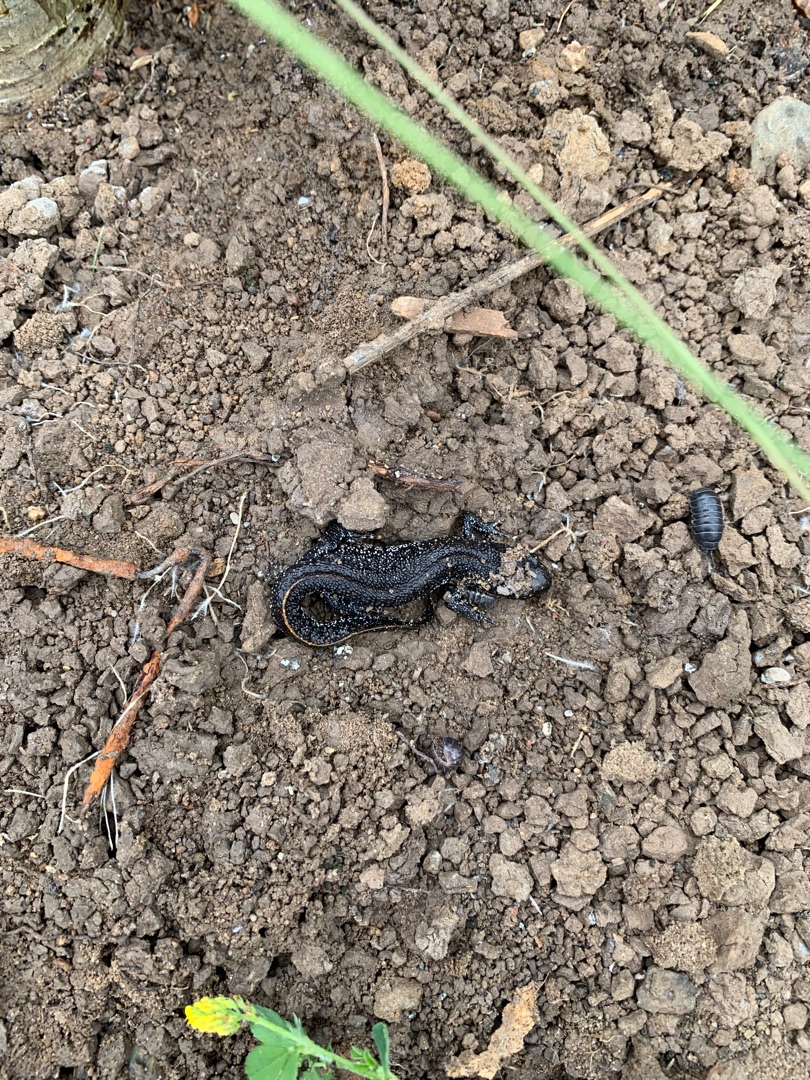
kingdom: Animalia
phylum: Chordata
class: Amphibia
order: Caudata
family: Salamandridae
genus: Triturus
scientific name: Triturus cristatus
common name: Stor vandsalamander
